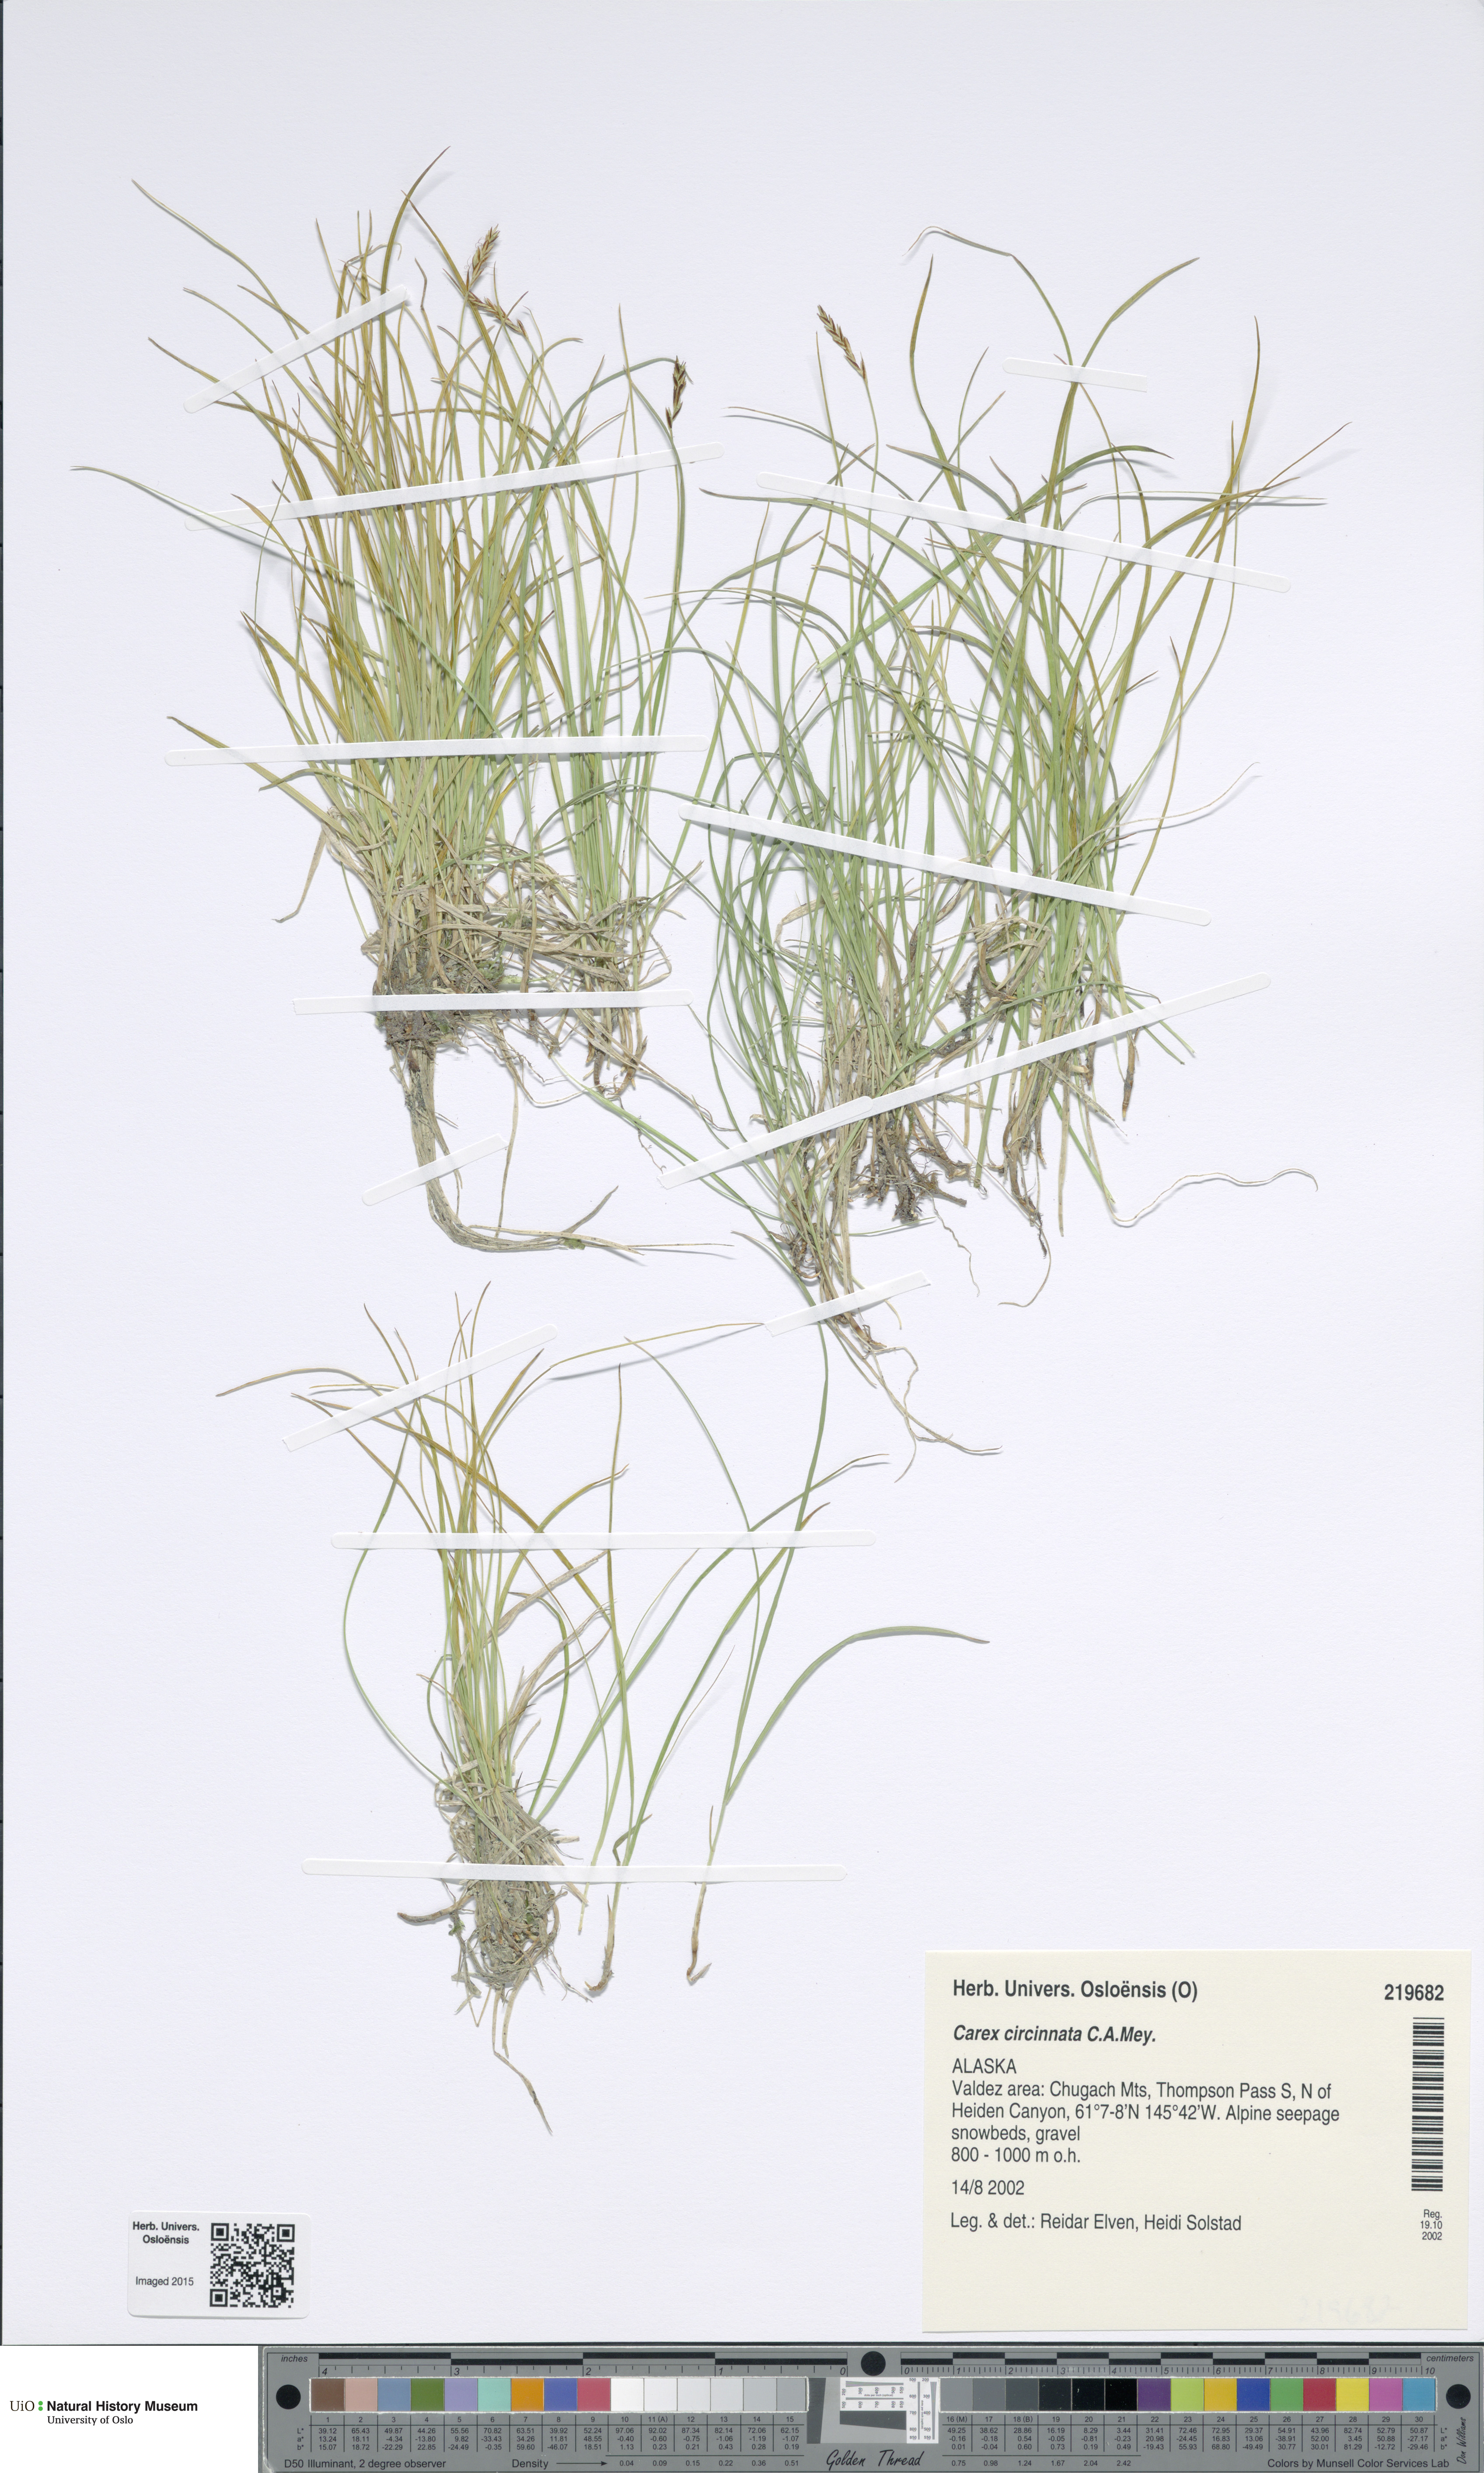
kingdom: Plantae
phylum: Tracheophyta
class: Liliopsida
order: Poales
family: Cyperaceae
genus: Carex
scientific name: Carex circinata
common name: Coiled sedge
